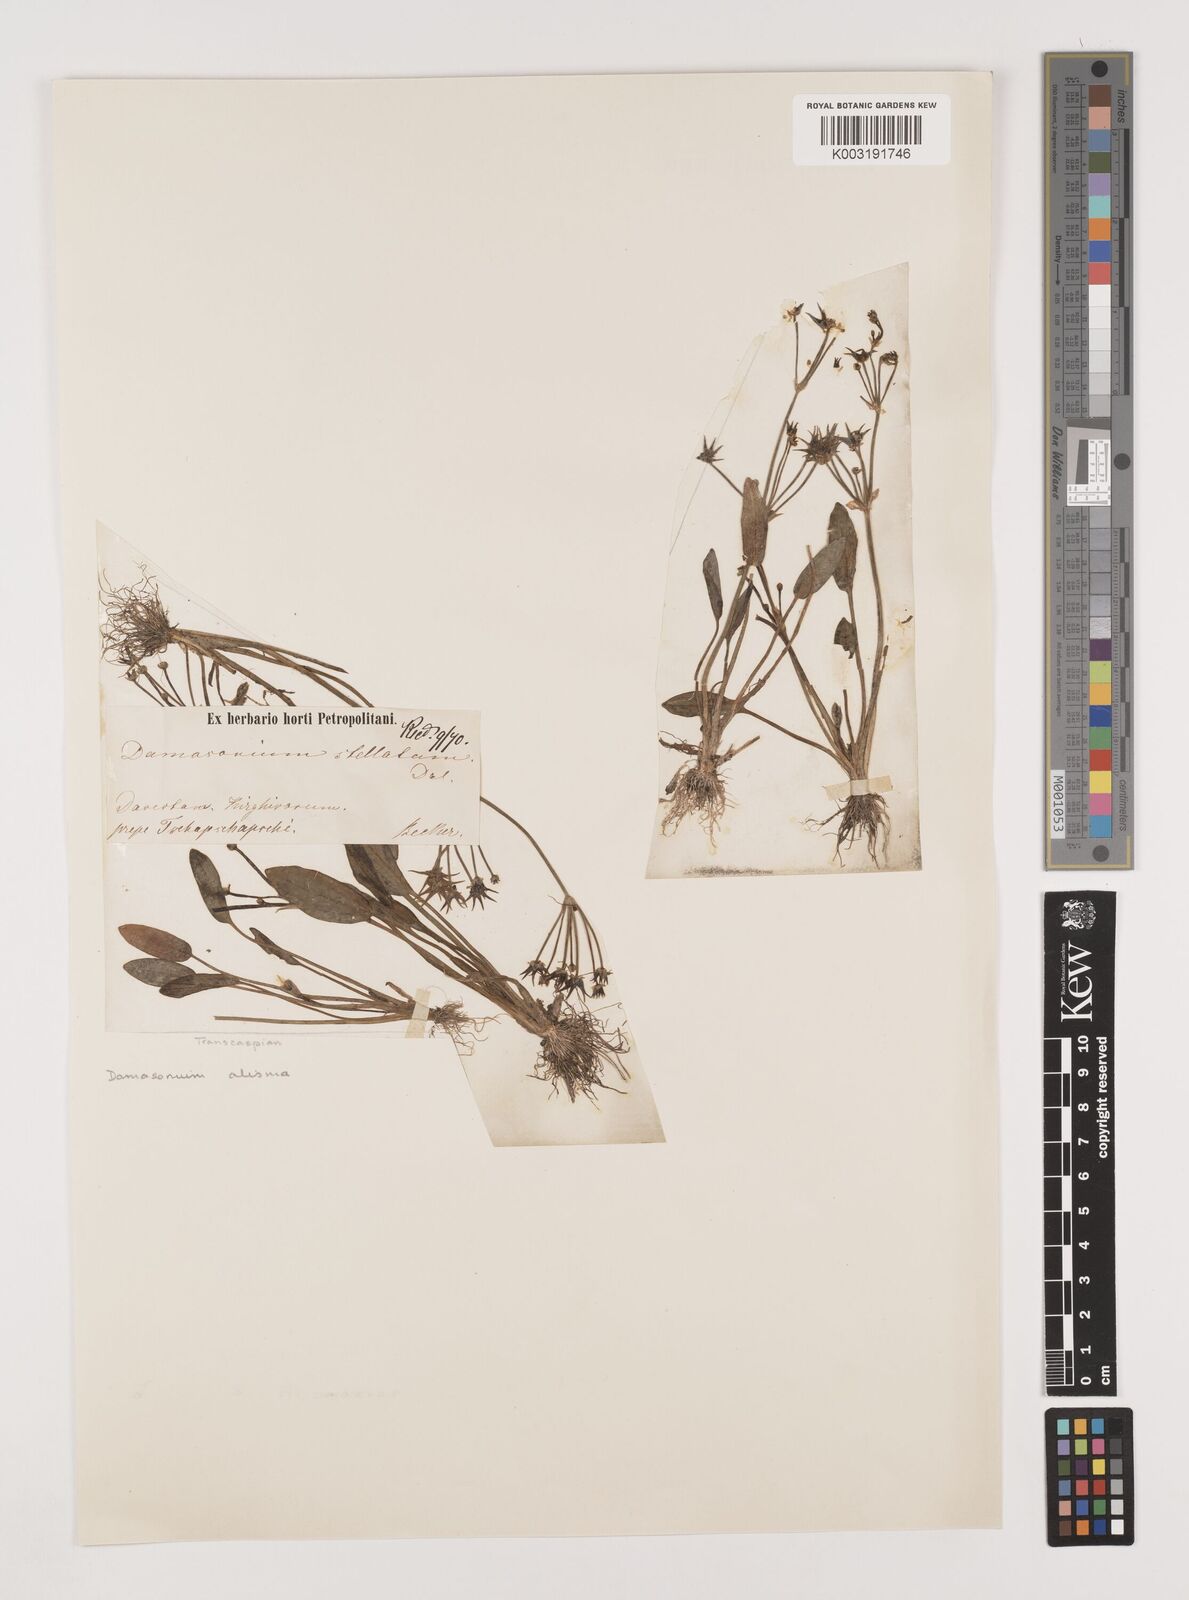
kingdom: Plantae
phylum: Tracheophyta
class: Liliopsida
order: Alismatales
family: Alismataceae
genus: Damasonium
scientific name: Damasonium alisma
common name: Starfruit
